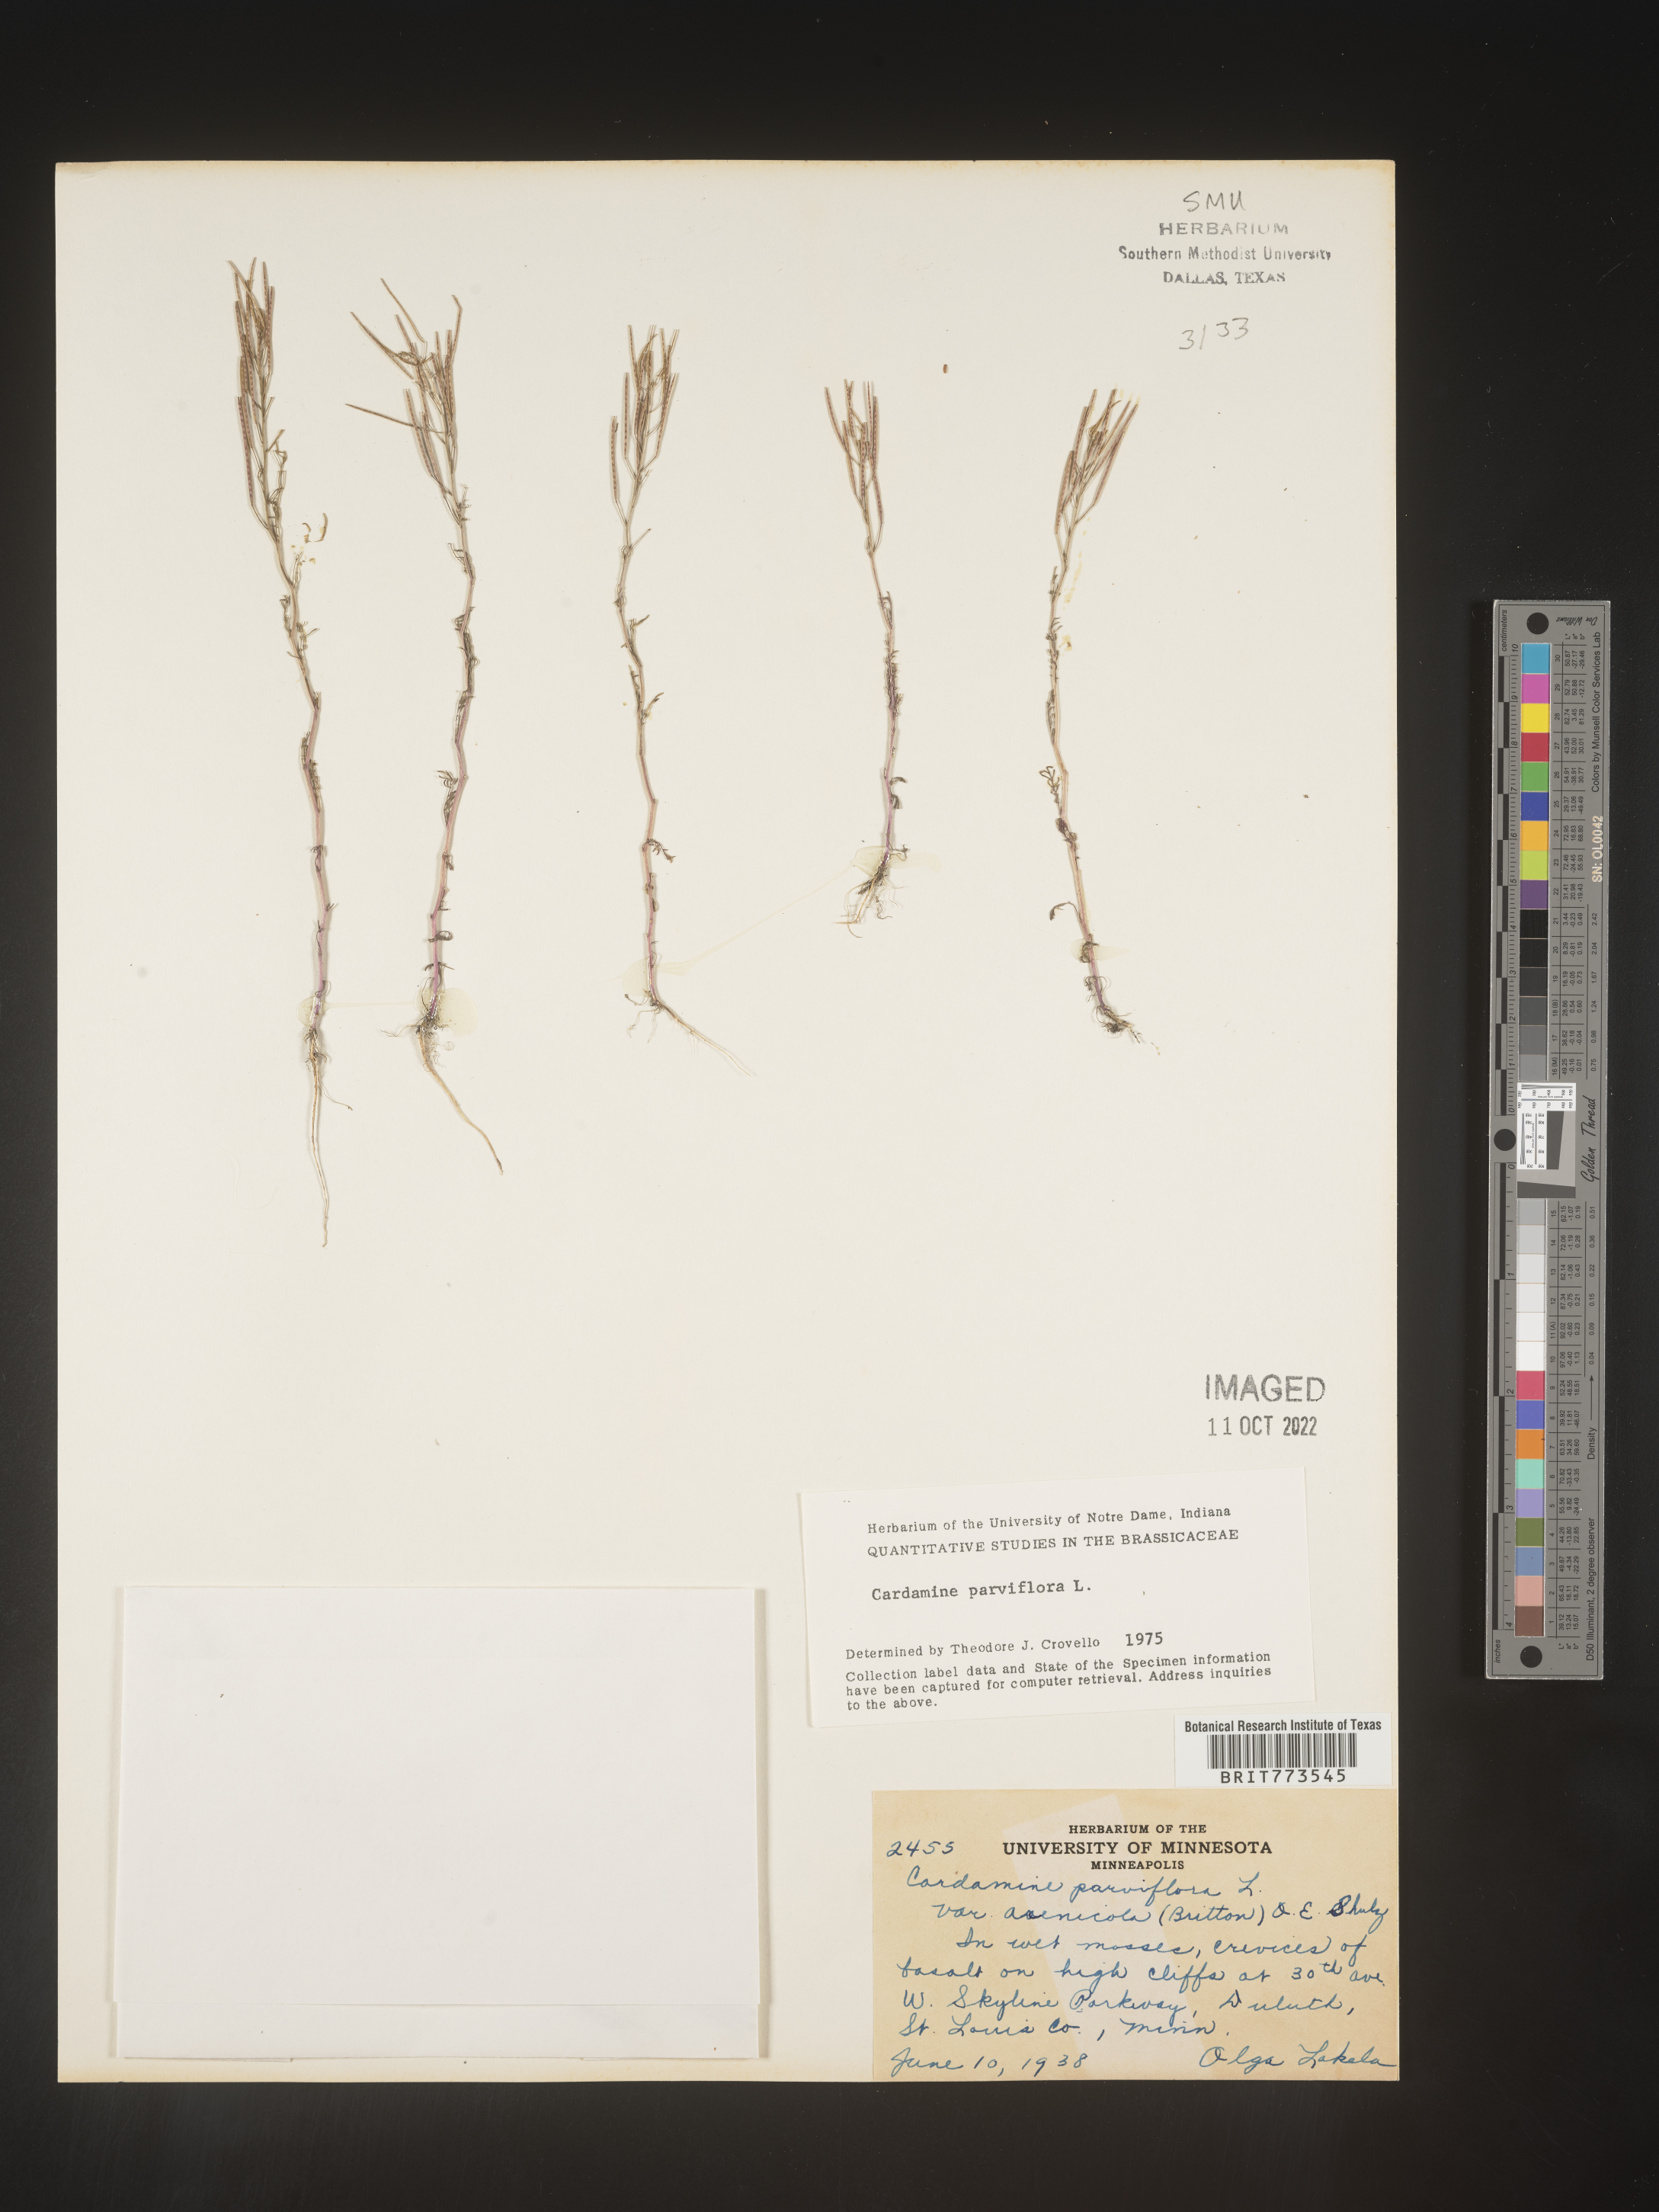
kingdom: Plantae
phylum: Tracheophyta
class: Magnoliopsida
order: Brassicales
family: Brassicaceae
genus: Cardamine
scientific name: Cardamine parviflora
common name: Sand bittercress
